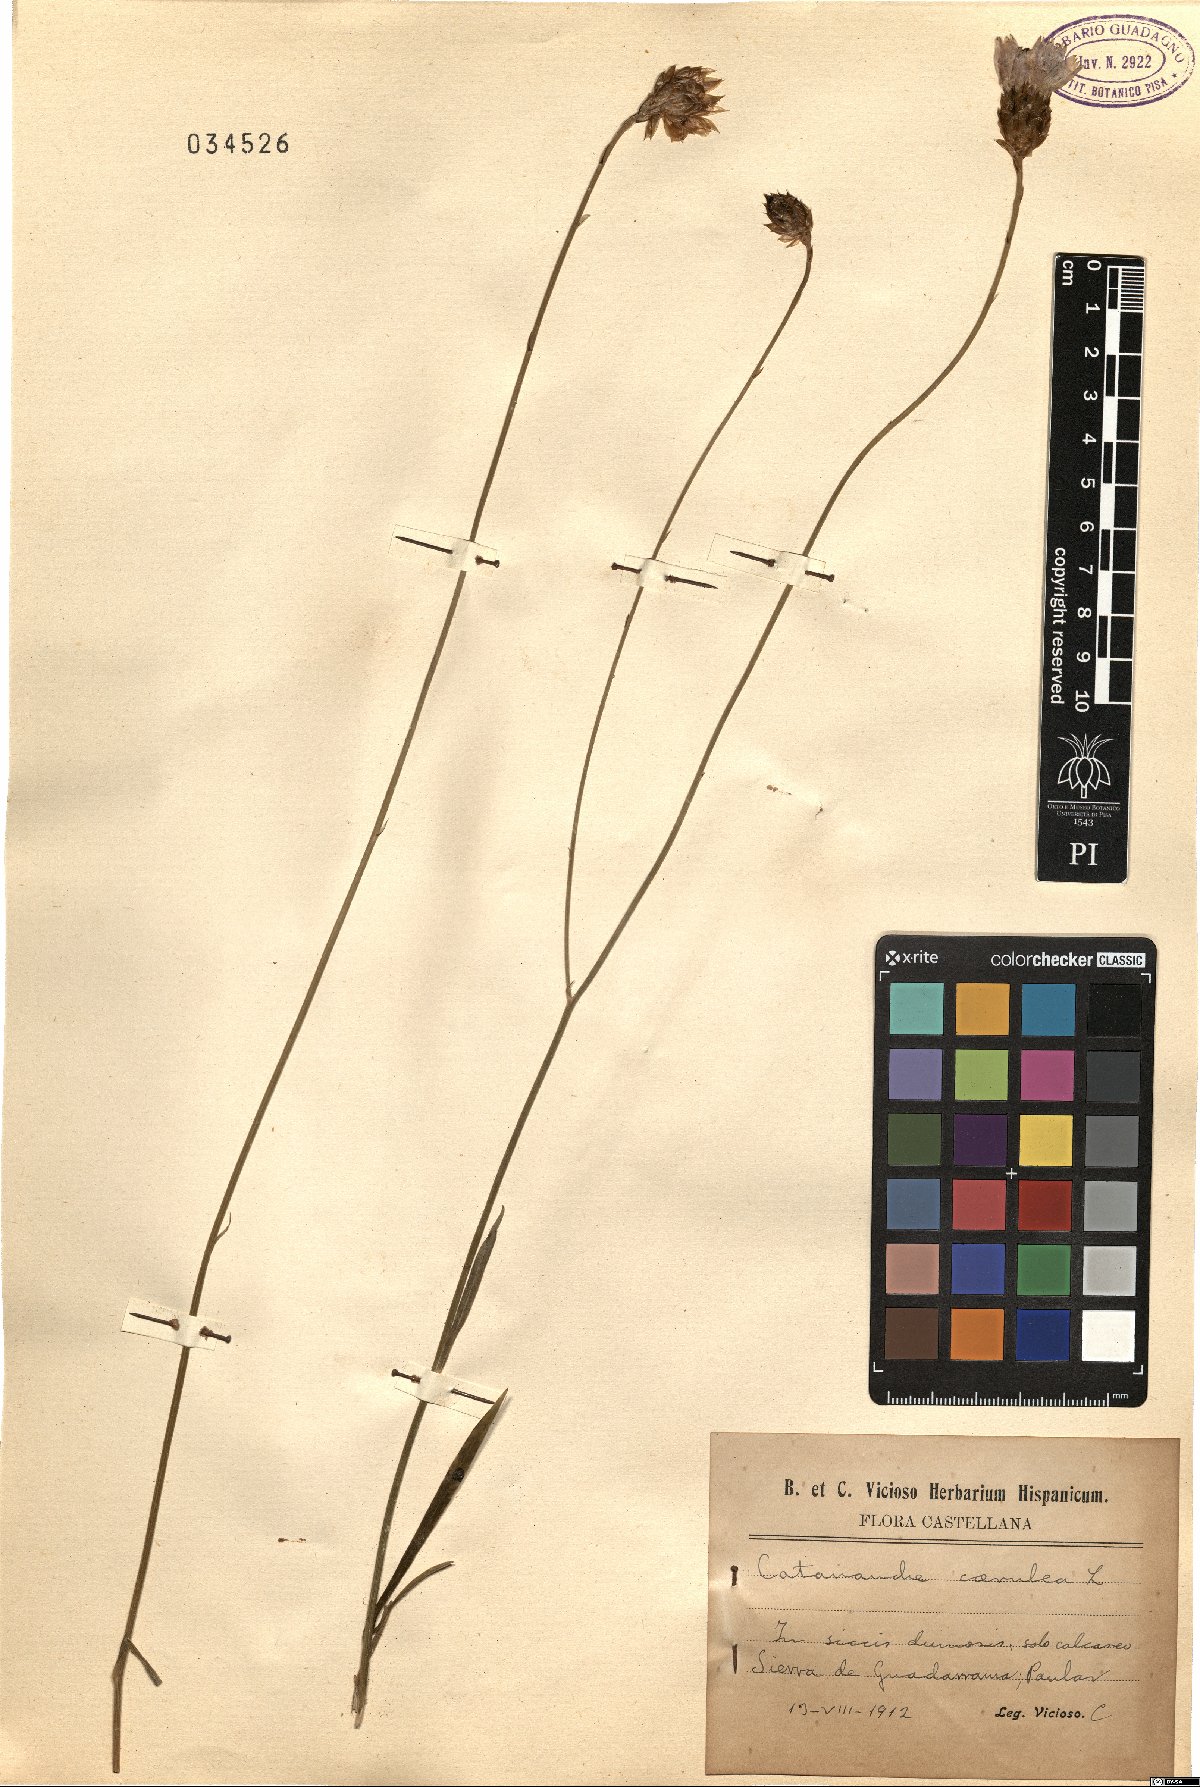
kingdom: Plantae
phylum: Tracheophyta
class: Magnoliopsida
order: Asterales
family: Asteraceae
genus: Catananche
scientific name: Catananche caerulea
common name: Blue cupidone
